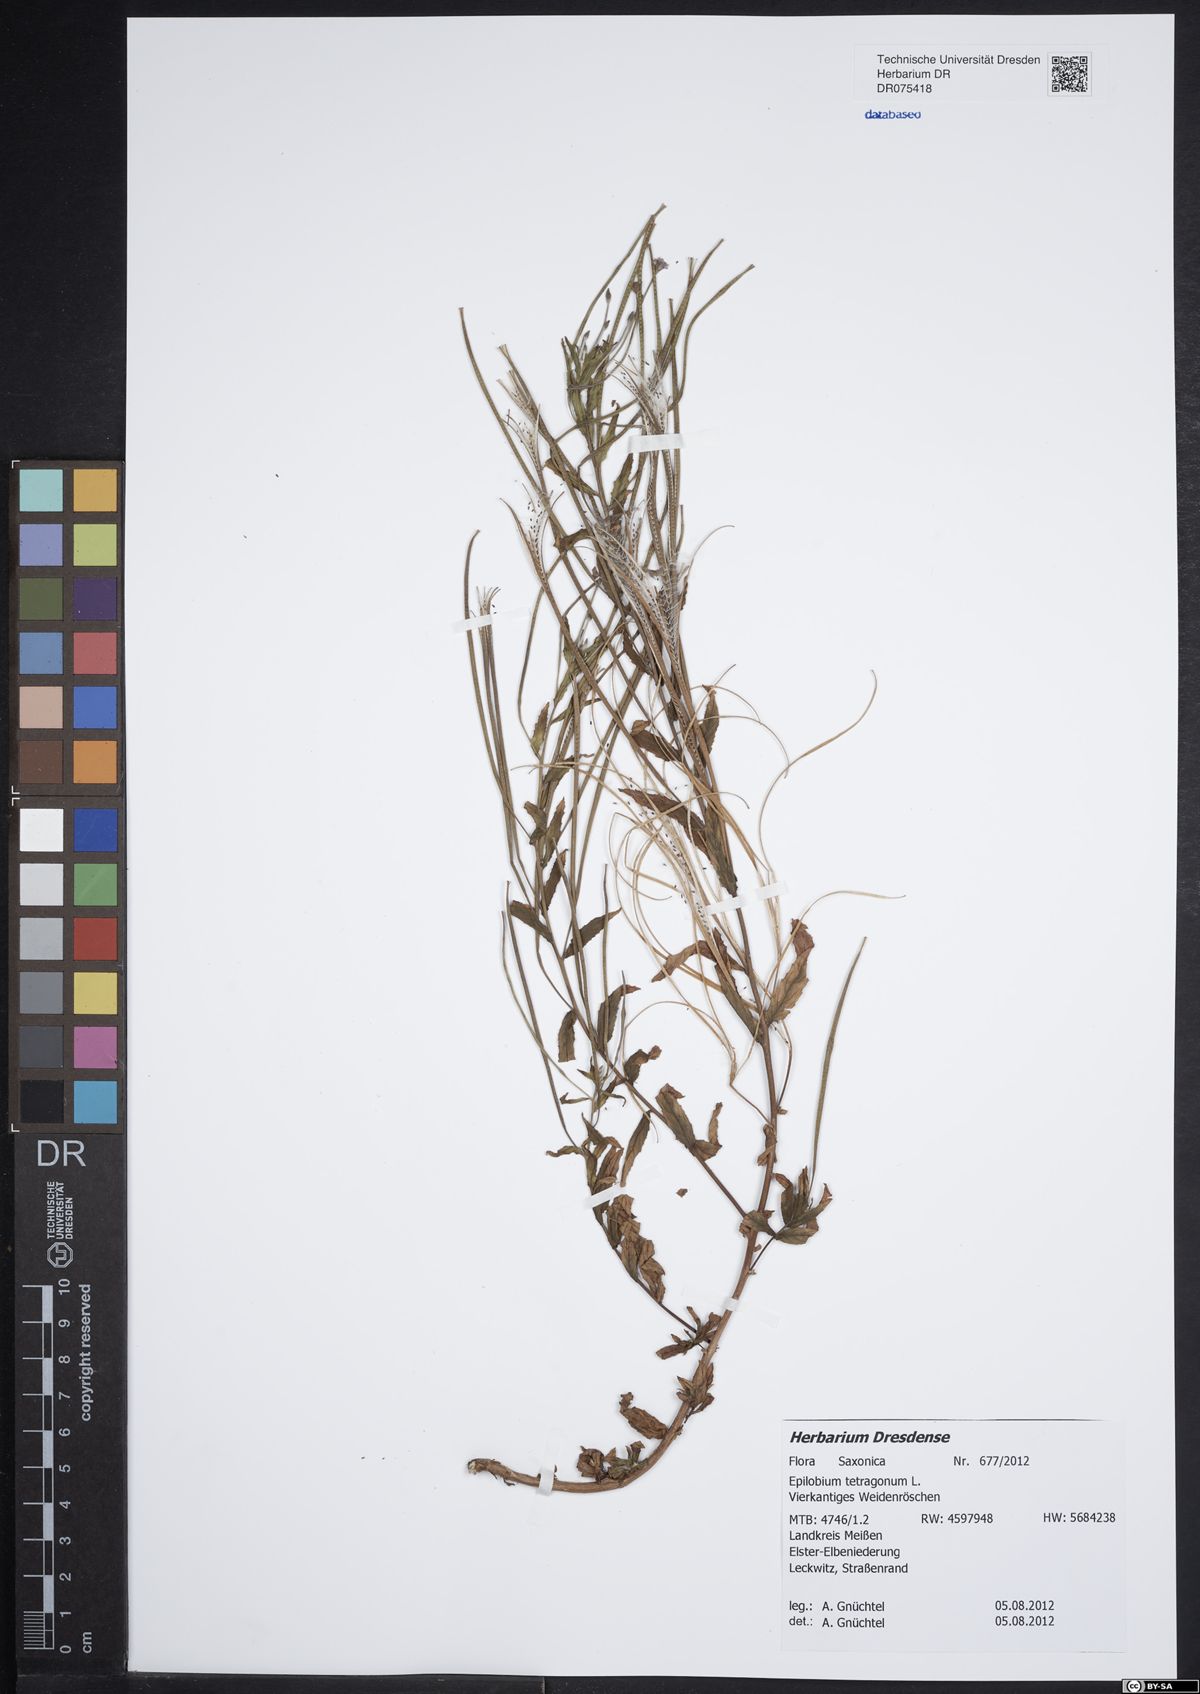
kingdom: Plantae
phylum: Tracheophyta
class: Magnoliopsida
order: Myrtales
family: Onagraceae
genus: Epilobium
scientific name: Epilobium tetragonum
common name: Square-stemmed willowherb
